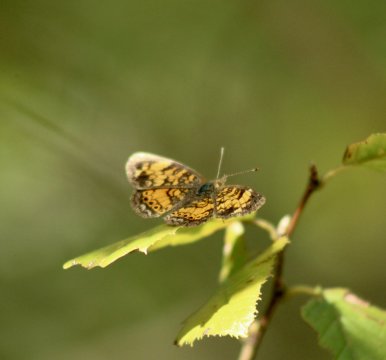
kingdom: Animalia
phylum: Arthropoda
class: Insecta
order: Lepidoptera
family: Nymphalidae
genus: Phyciodes
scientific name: Phyciodes tharos
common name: Pearl Crescent
